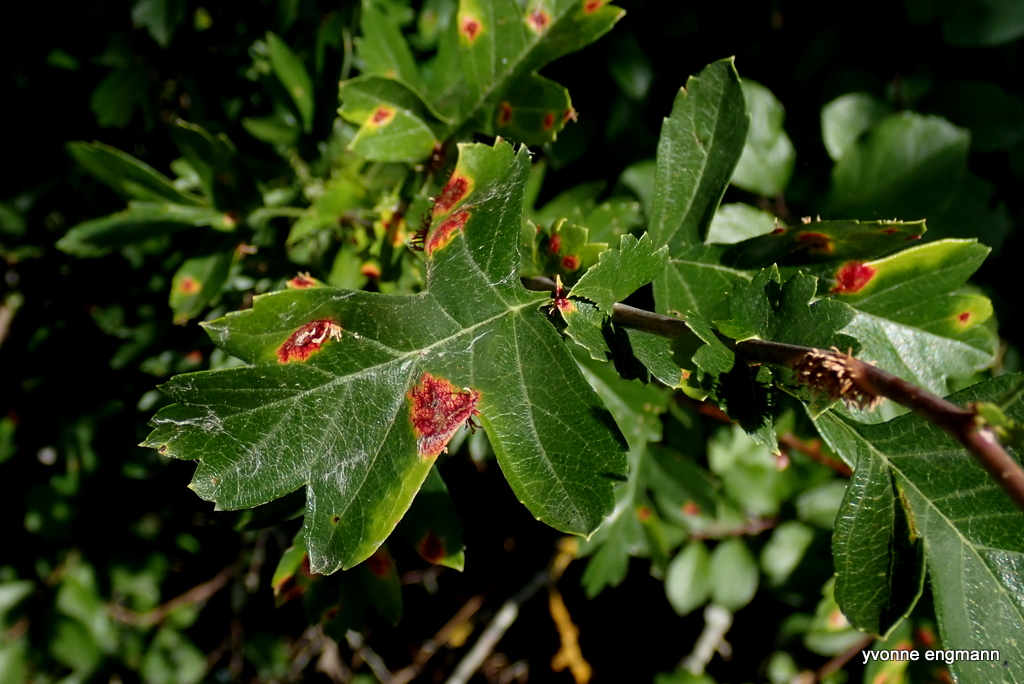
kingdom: Fungi
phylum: Basidiomycota
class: Pucciniomycetes
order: Pucciniales
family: Gymnosporangiaceae
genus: Gymnosporangium
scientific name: Gymnosporangium
